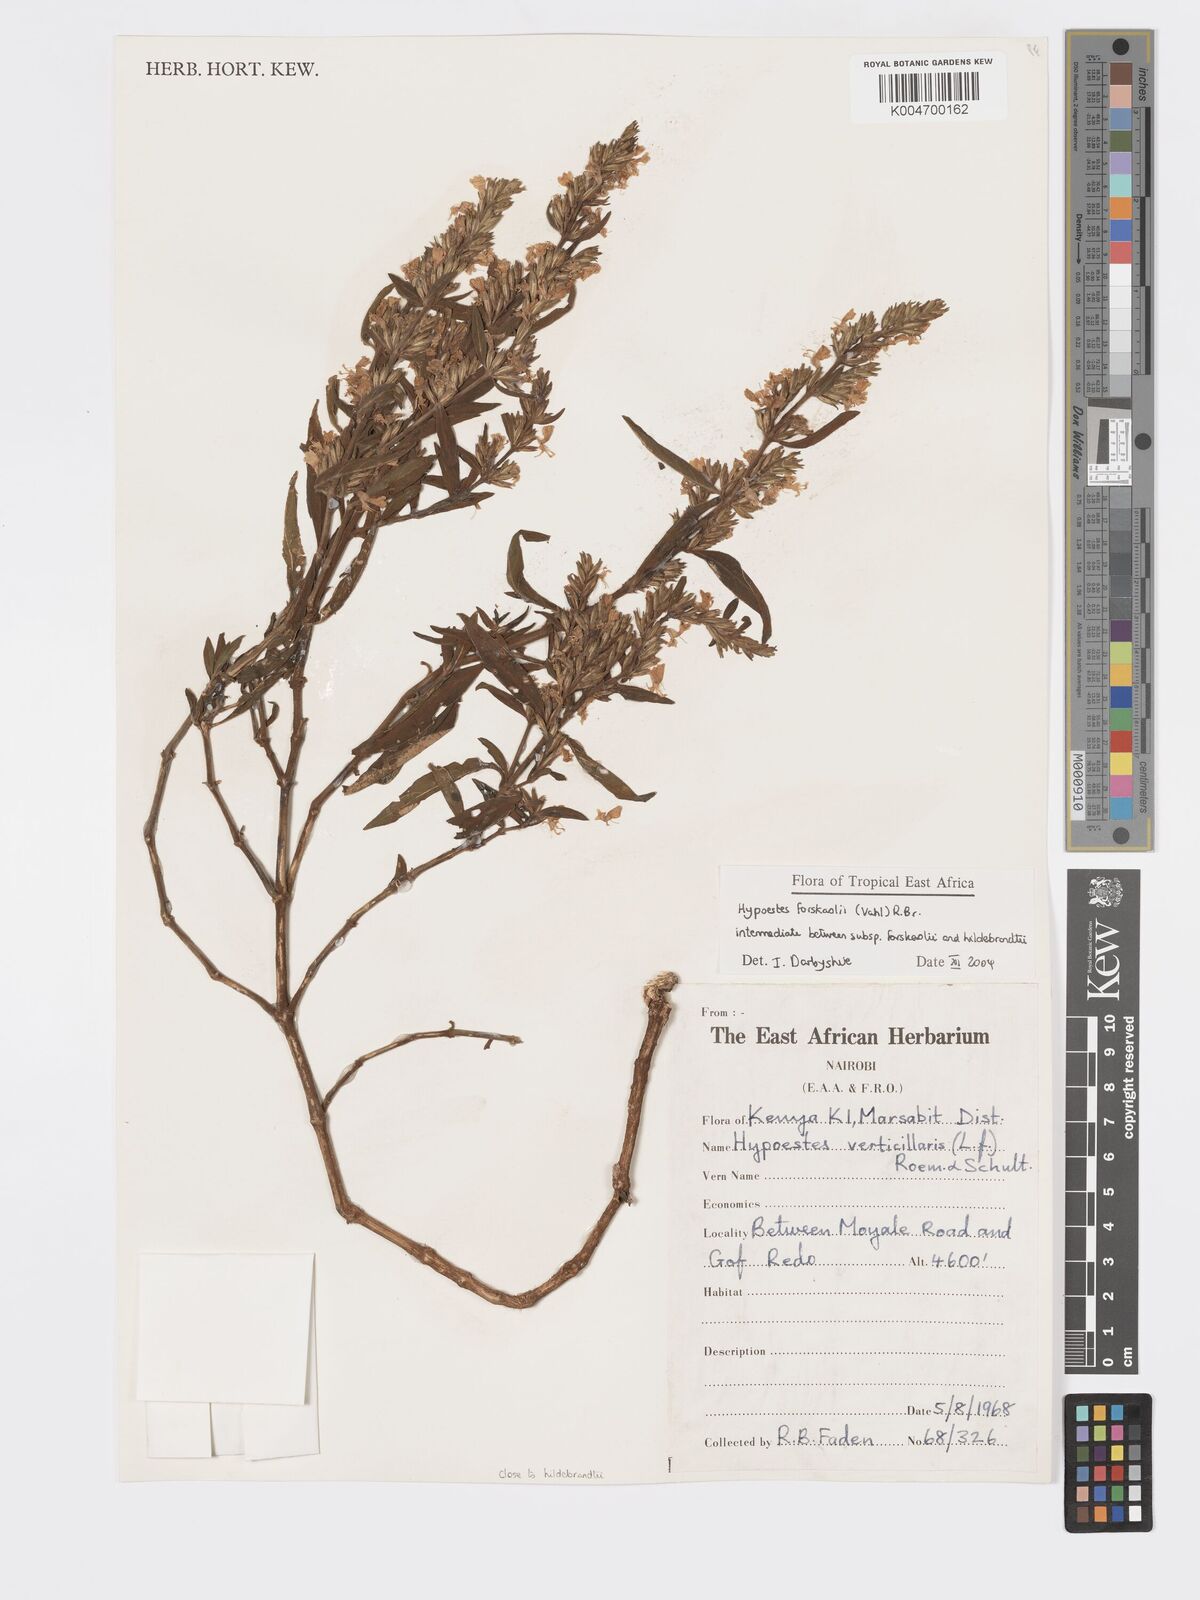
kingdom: Plantae
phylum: Tracheophyta
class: Magnoliopsida
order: Lamiales
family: Acanthaceae
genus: Hypoestes
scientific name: Hypoestes forskaolii
